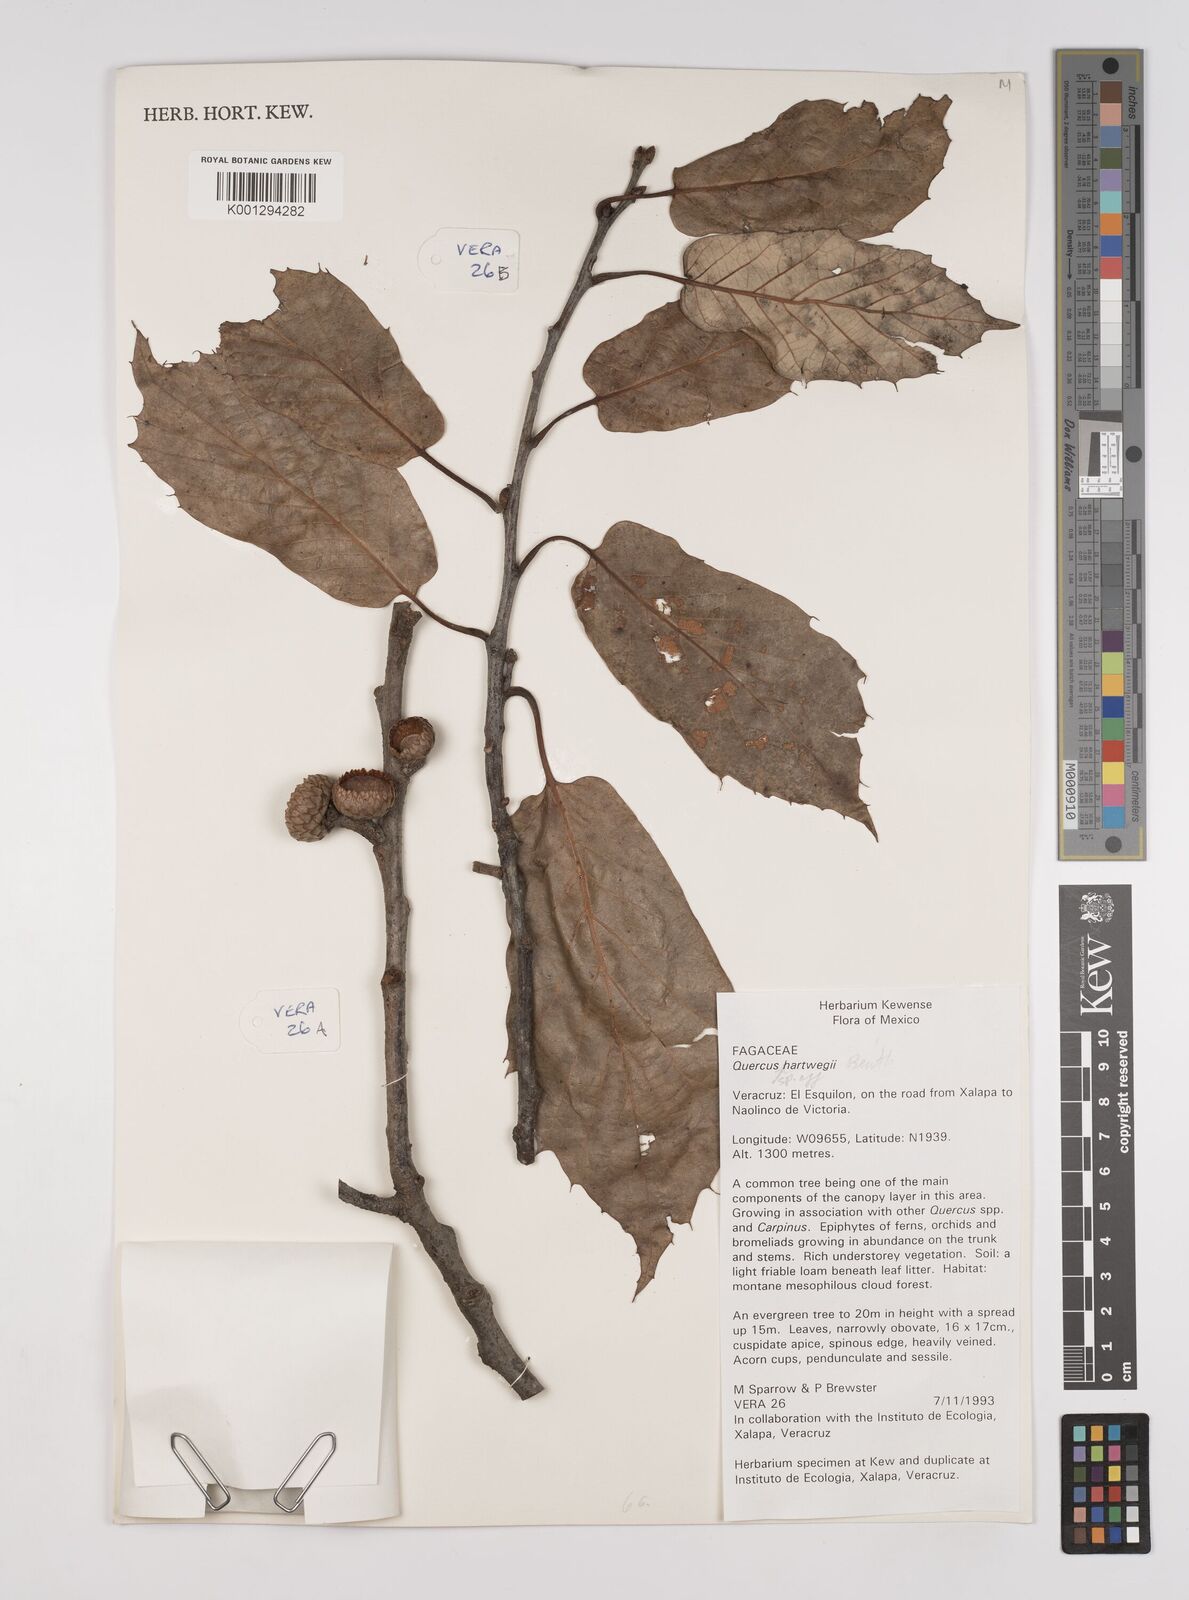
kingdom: Plantae
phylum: Tracheophyta
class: Magnoliopsida
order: Fagales
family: Fagaceae
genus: Quercus
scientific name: Quercus obtusata
